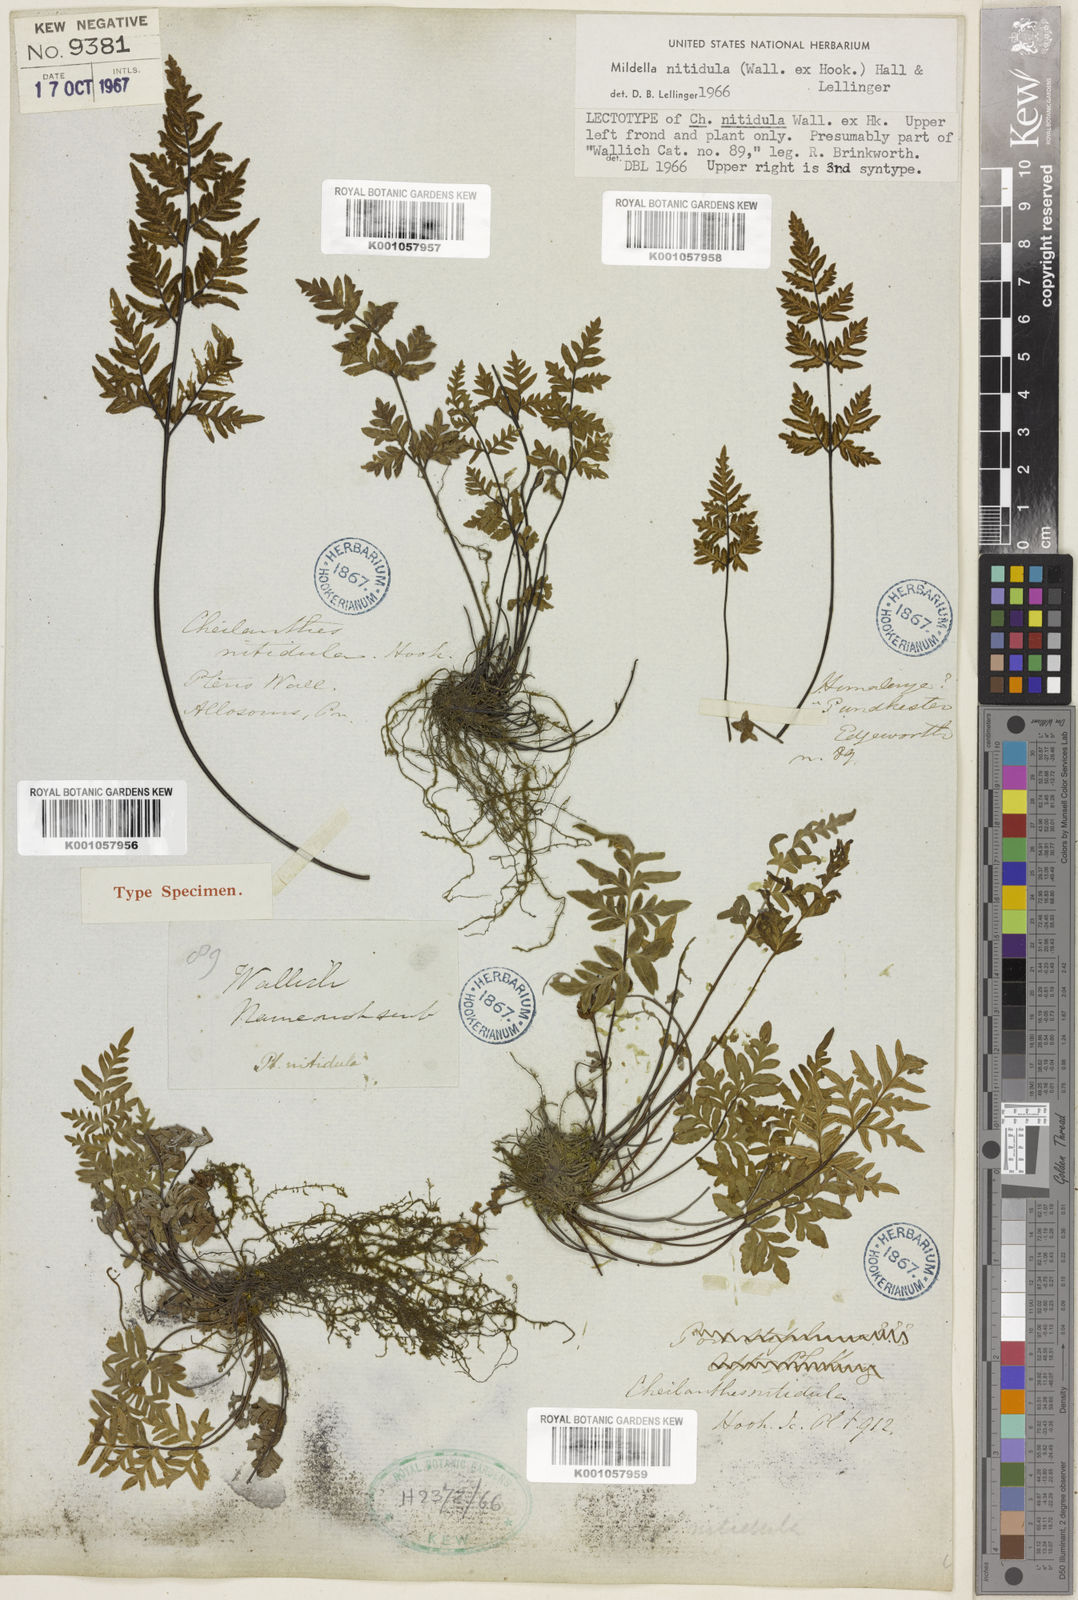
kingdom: Plantae
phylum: Tracheophyta
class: Polypodiopsida
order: Polypodiales
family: Pteridaceae
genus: Mildella
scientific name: Mildella nitidula
